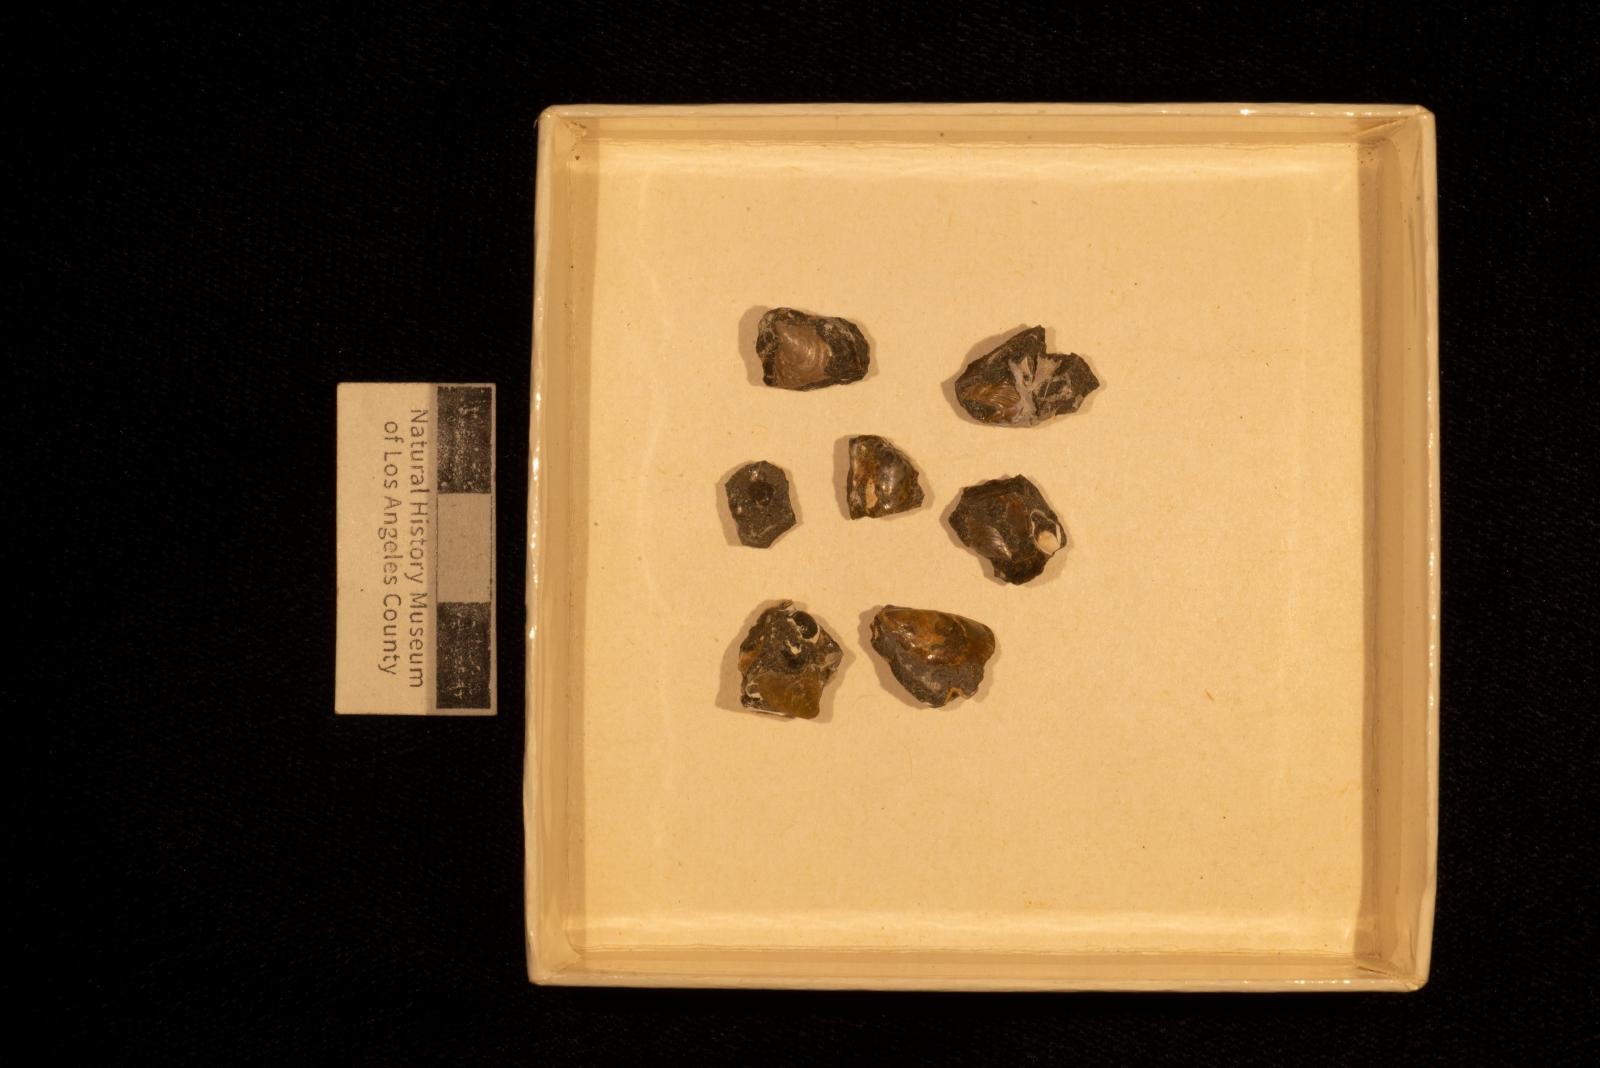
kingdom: Animalia
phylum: Mollusca
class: Bivalvia
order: Myalinida
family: Inoceramidae
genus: Sphenoceramus
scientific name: Sphenoceramus naumanni
